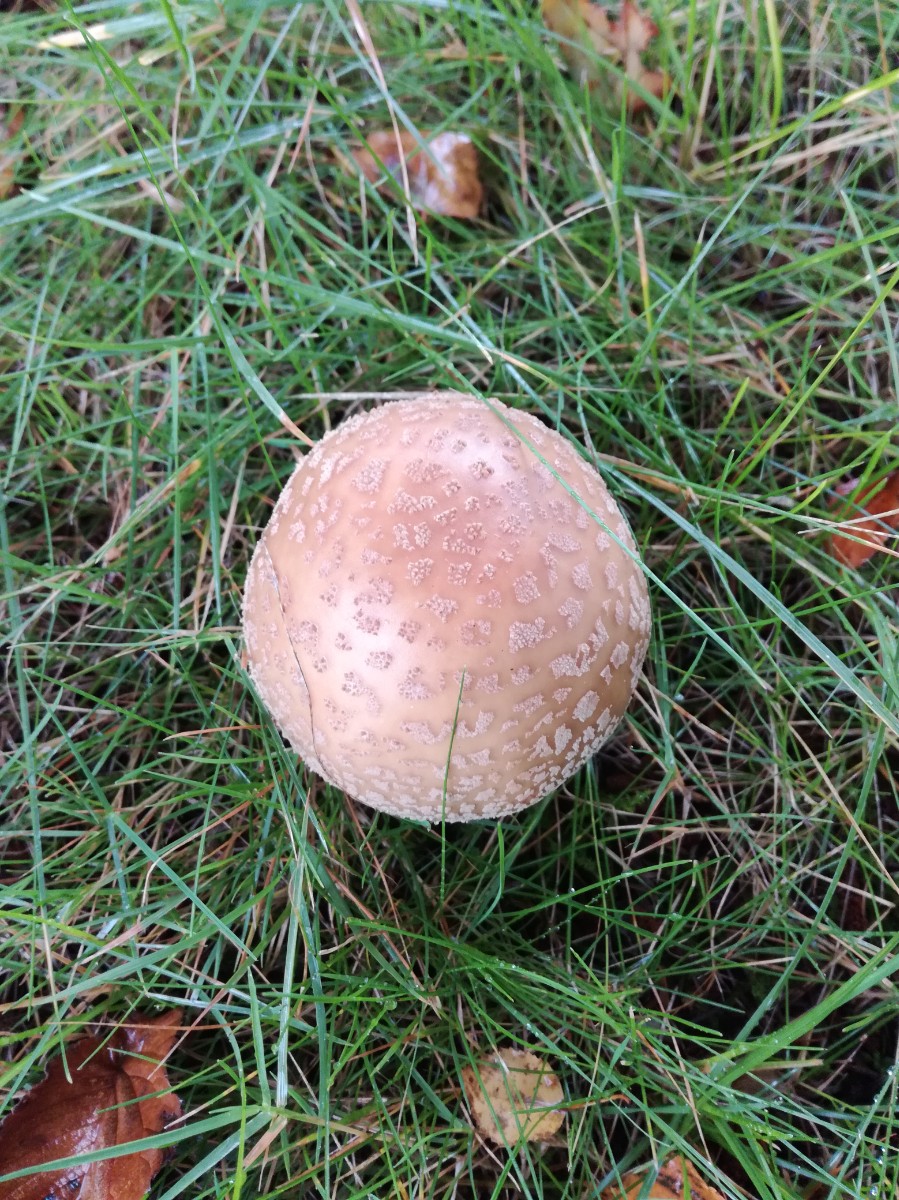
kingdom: Fungi
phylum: Basidiomycota
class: Agaricomycetes
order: Agaricales
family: Amanitaceae
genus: Amanita
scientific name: Amanita rubescens
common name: rødmende fluesvamp
